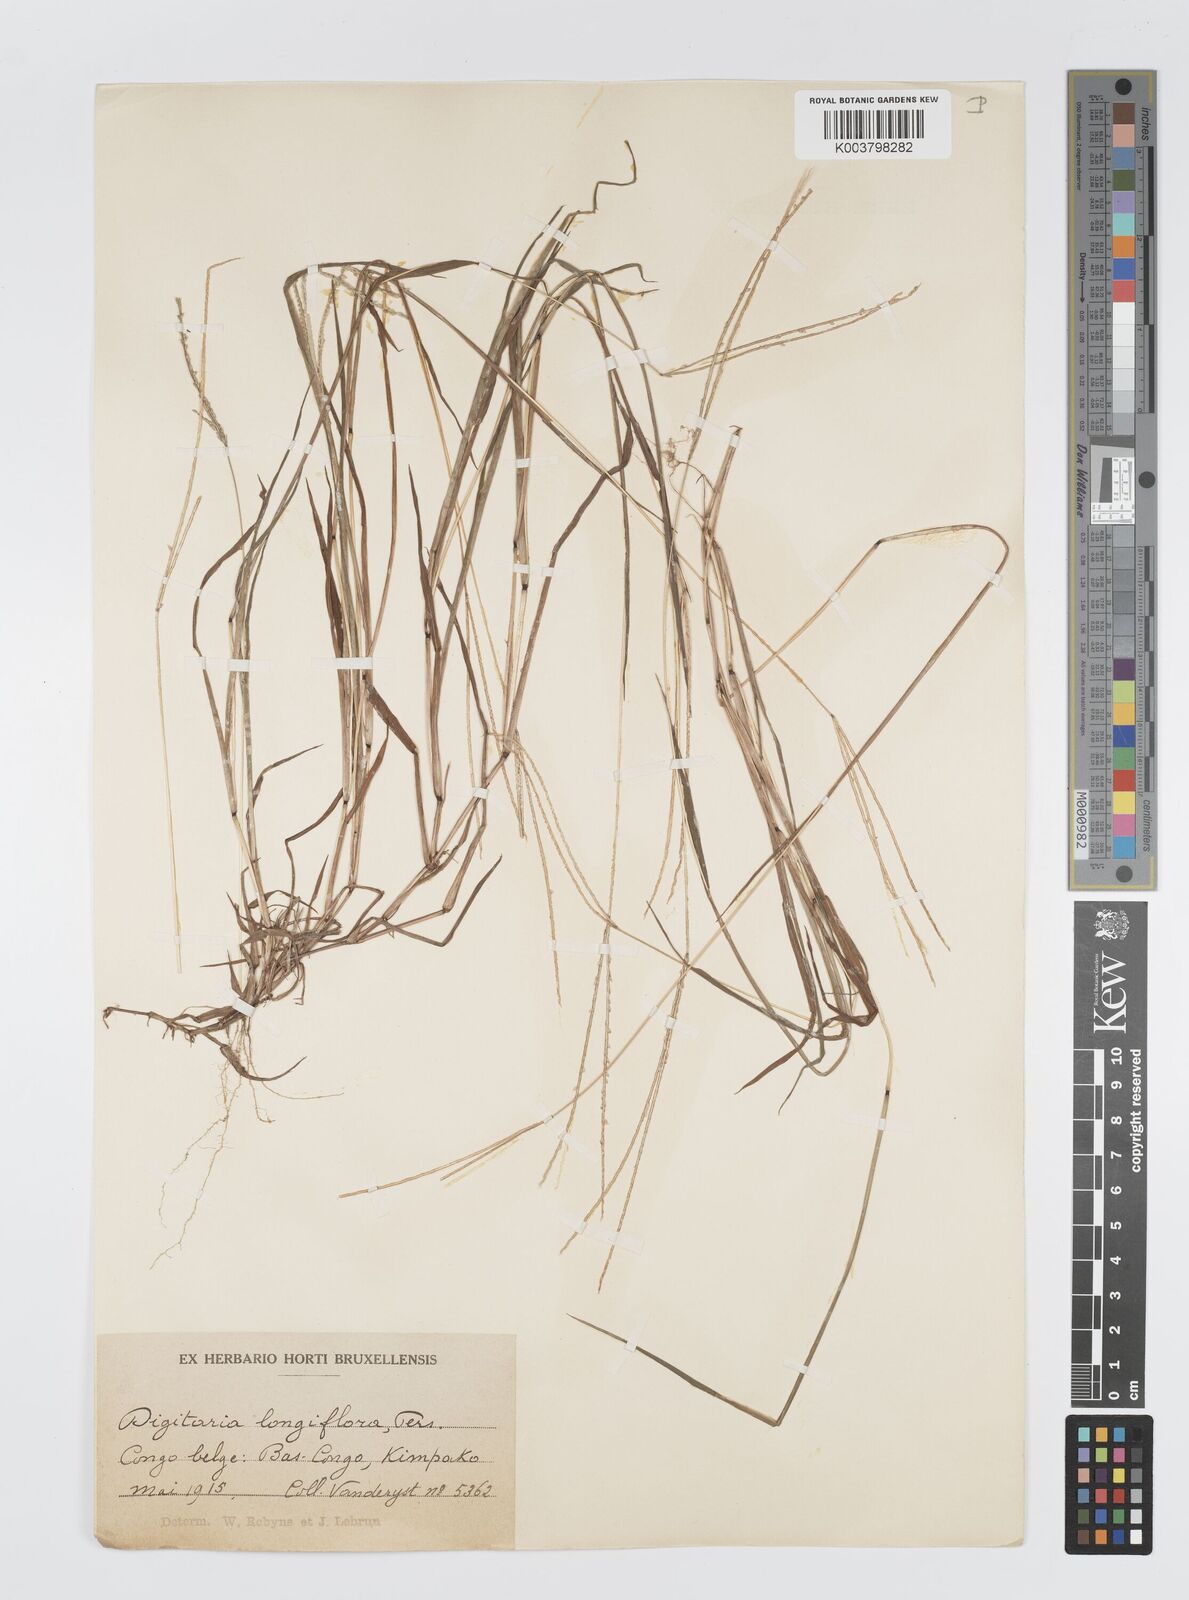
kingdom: Plantae
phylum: Tracheophyta
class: Liliopsida
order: Poales
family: Poaceae
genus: Digitaria
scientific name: Digitaria longiflora
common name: Wire crabgrass
